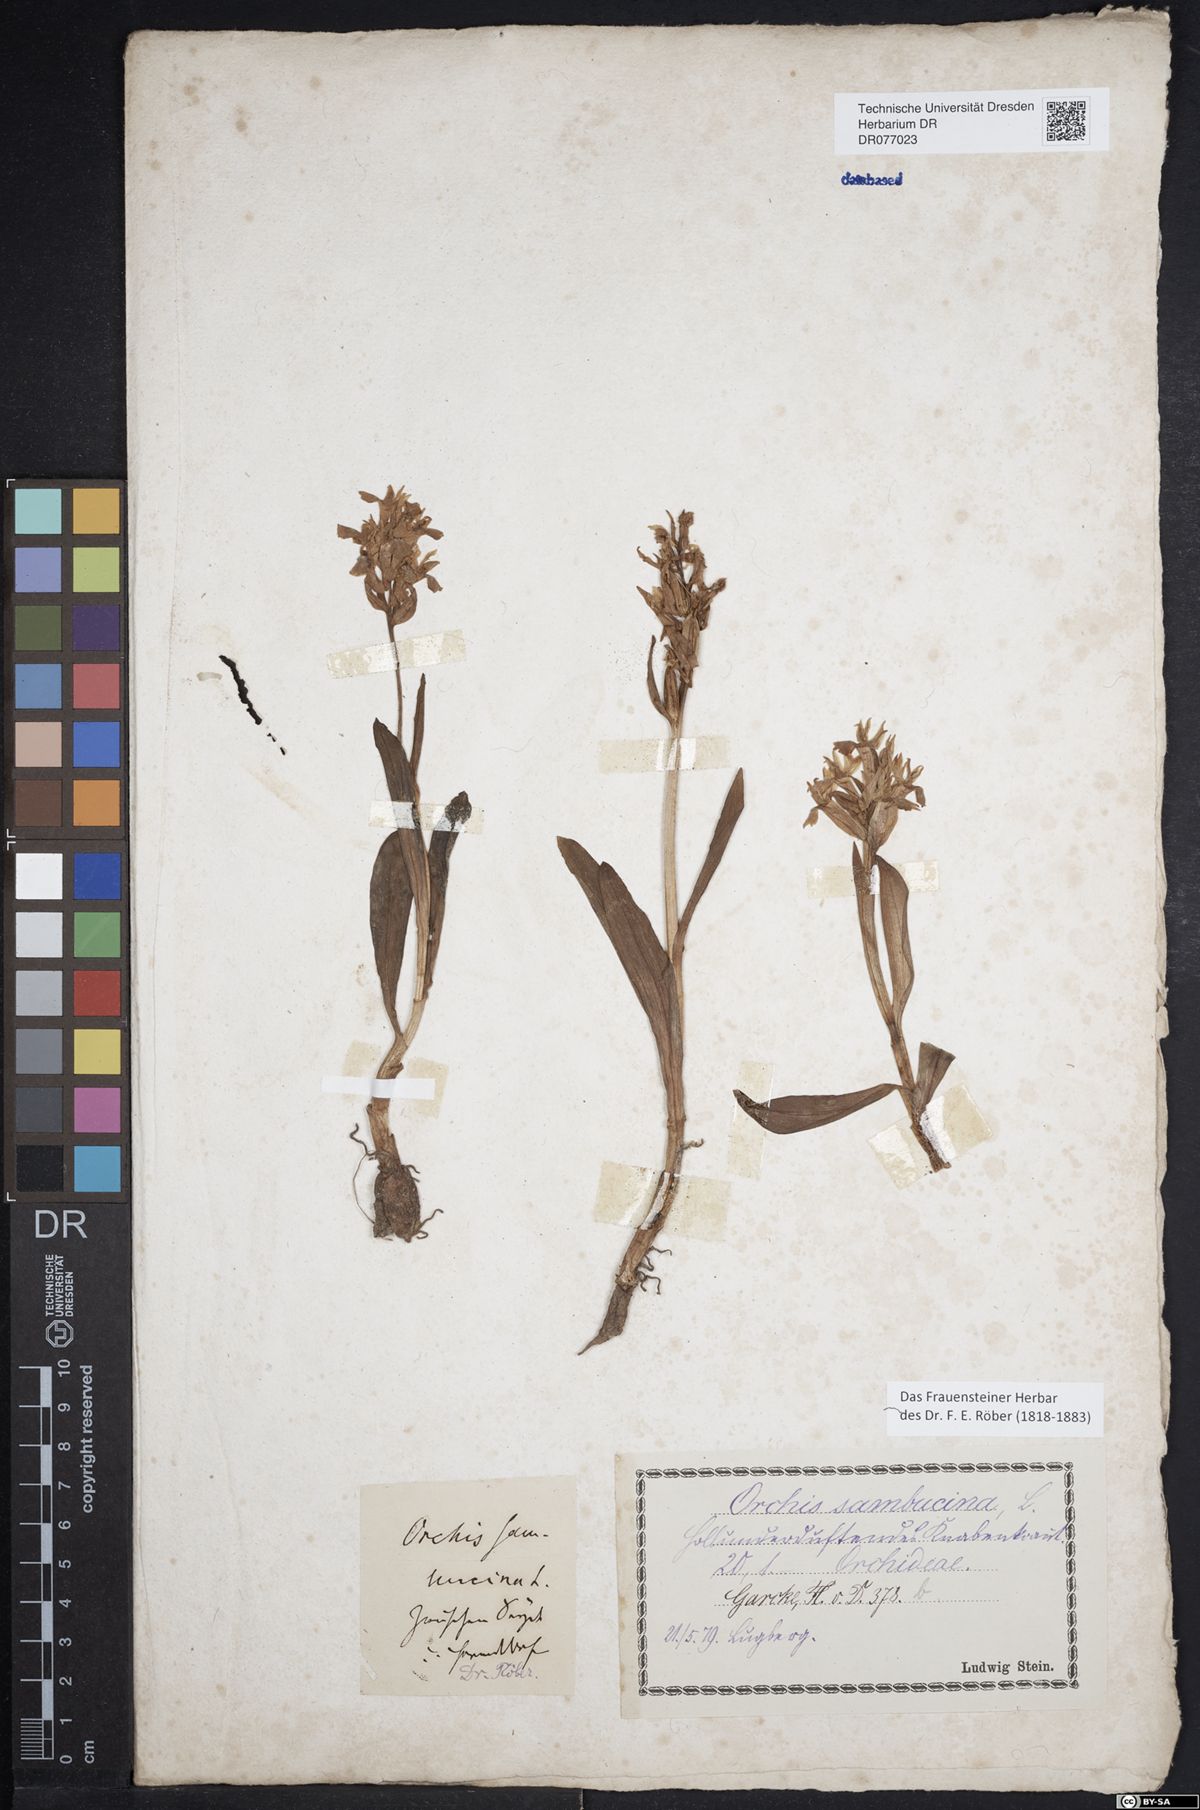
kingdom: Plantae
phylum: Tracheophyta
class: Liliopsida
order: Asparagales
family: Orchidaceae
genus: Dactylorhiza
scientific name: Dactylorhiza sambucina
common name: Elder-flowered orchid
